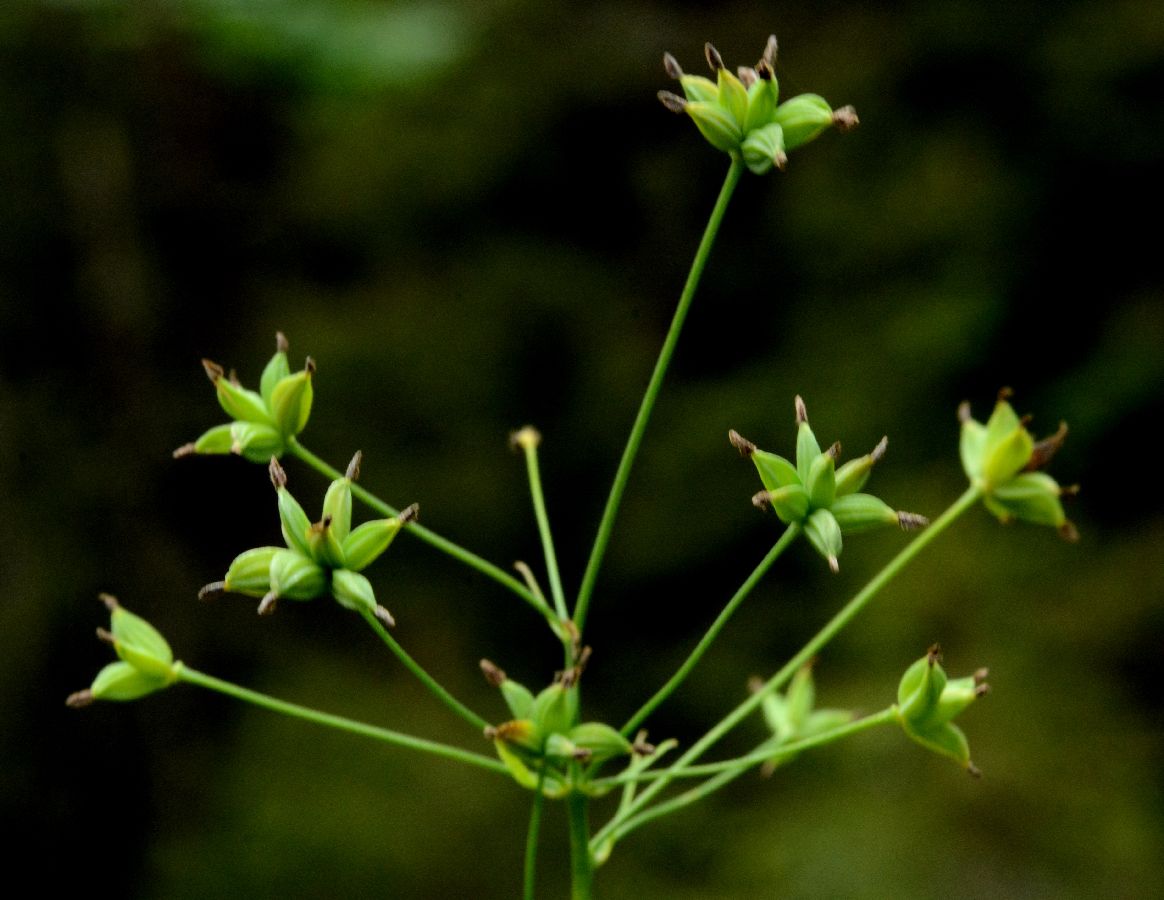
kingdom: Plantae
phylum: Tracheophyta
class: Magnoliopsida
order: Ranunculales
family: Ranunculaceae
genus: Thalictrum
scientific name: Thalictrum flavum
